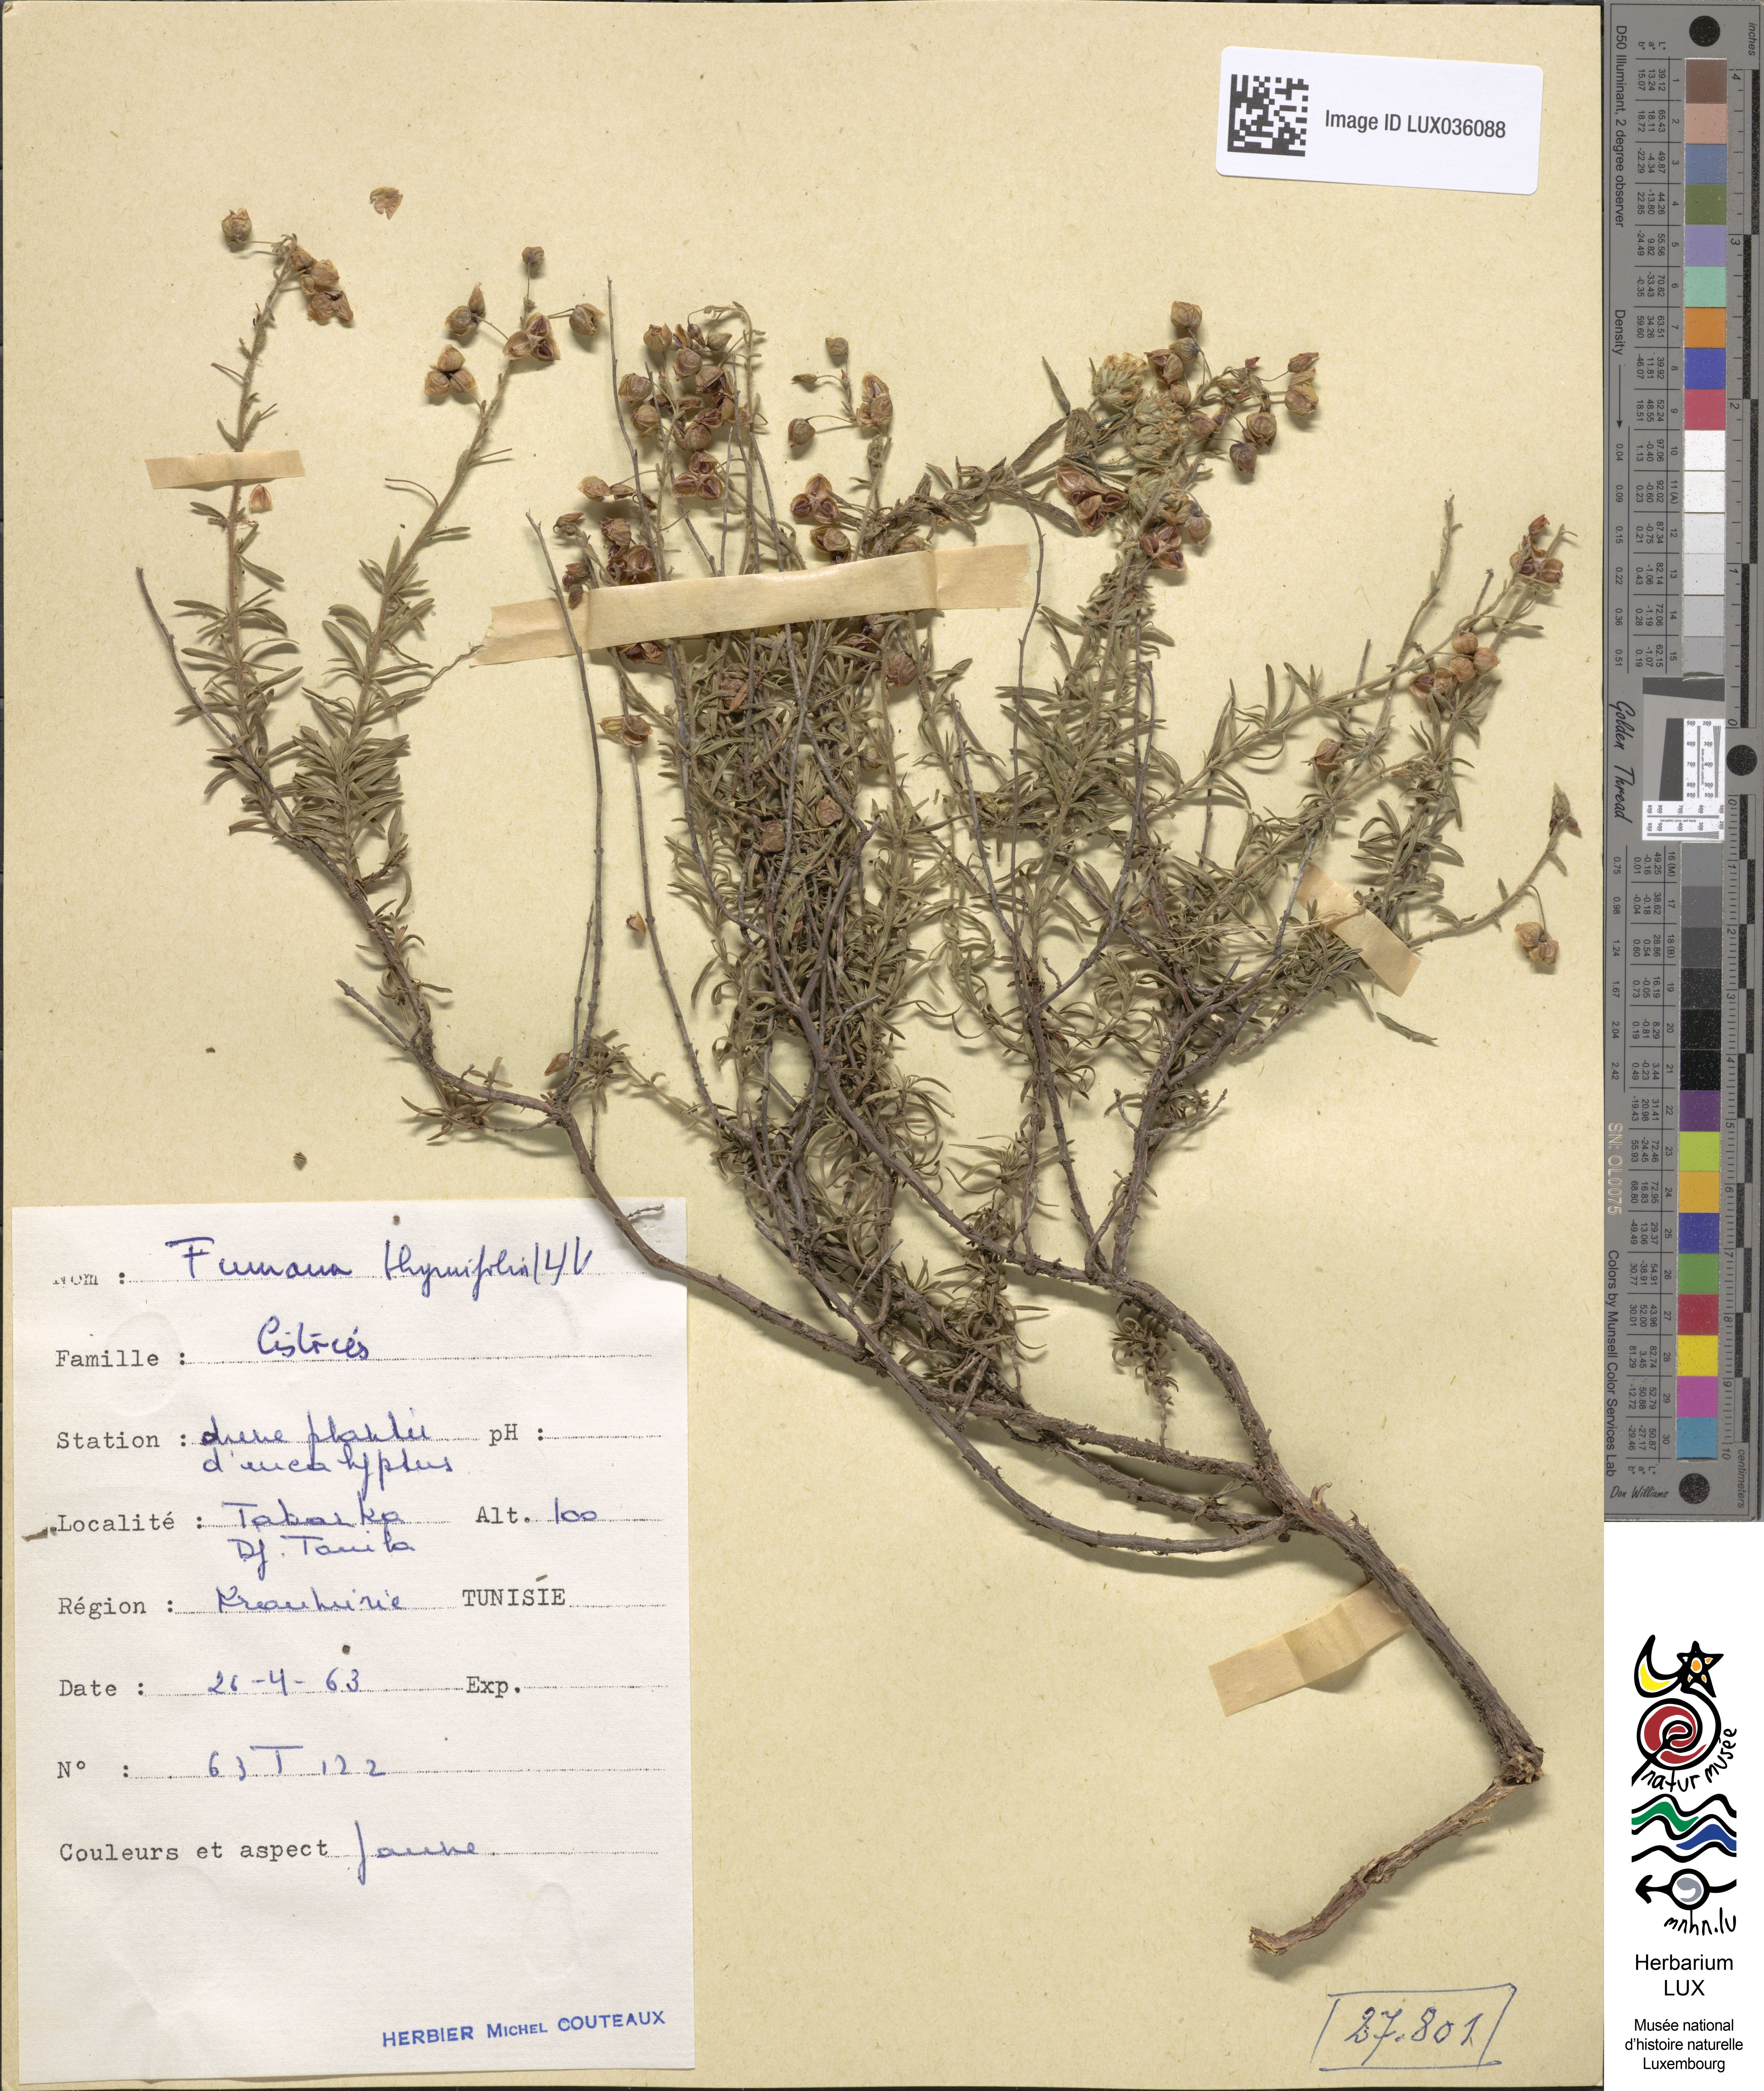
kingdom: Plantae
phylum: Tracheophyta
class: Magnoliopsida
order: Malvales
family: Cistaceae
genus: Fumana
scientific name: Fumana thymifolia
